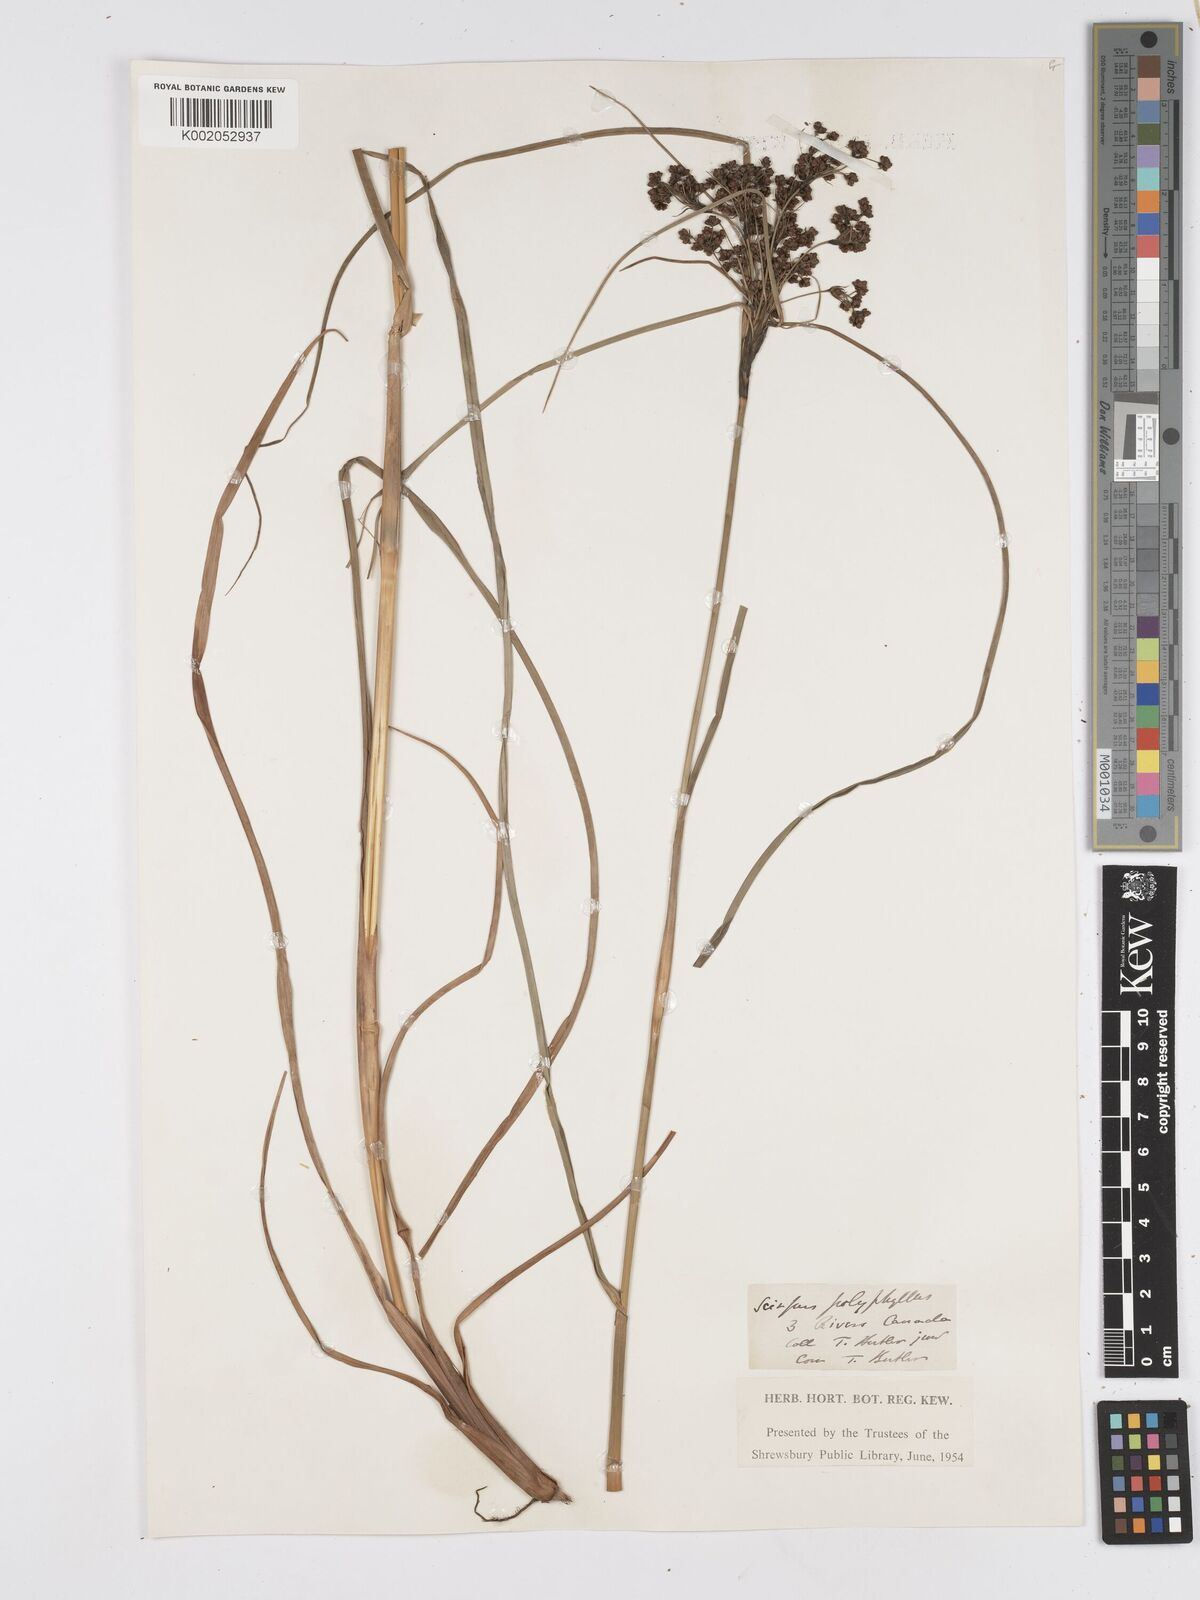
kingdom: Plantae
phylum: Tracheophyta
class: Liliopsida
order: Poales
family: Cyperaceae
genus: Scirpus
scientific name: Scirpus
